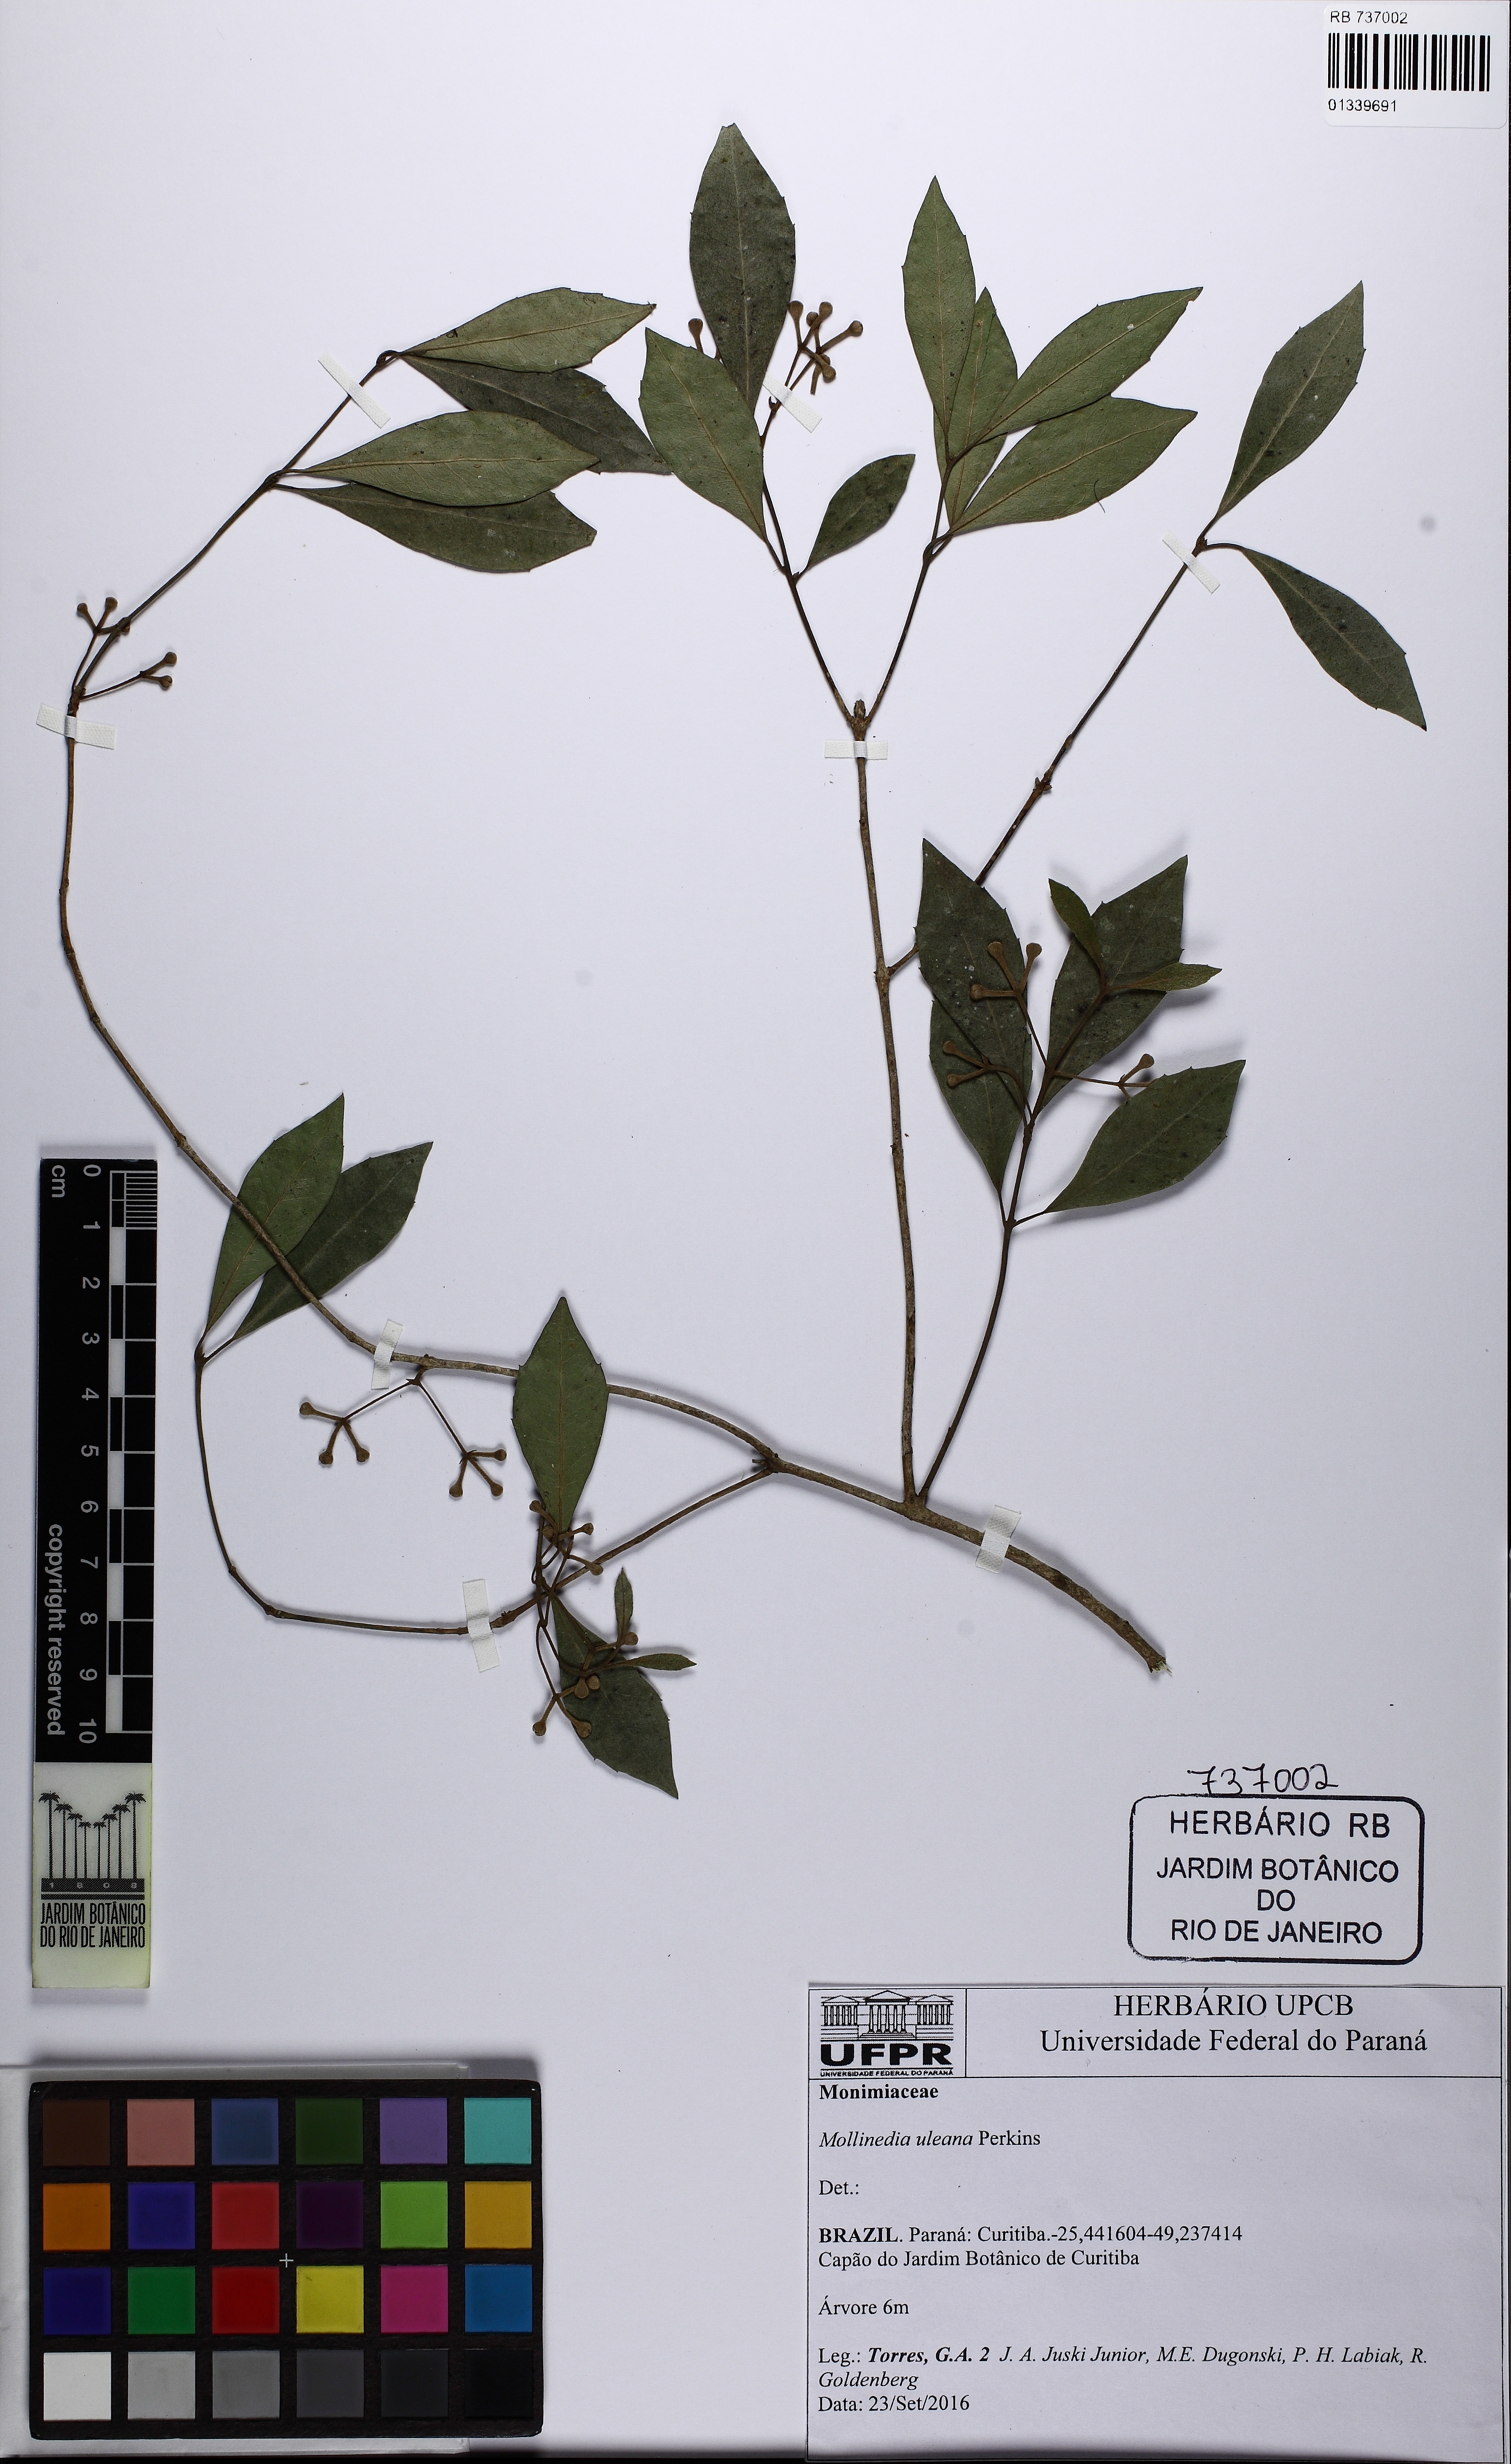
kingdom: Plantae
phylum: Tracheophyta
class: Magnoliopsida
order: Laurales
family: Monimiaceae
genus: Mollinedia
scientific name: Mollinedia clavigera
